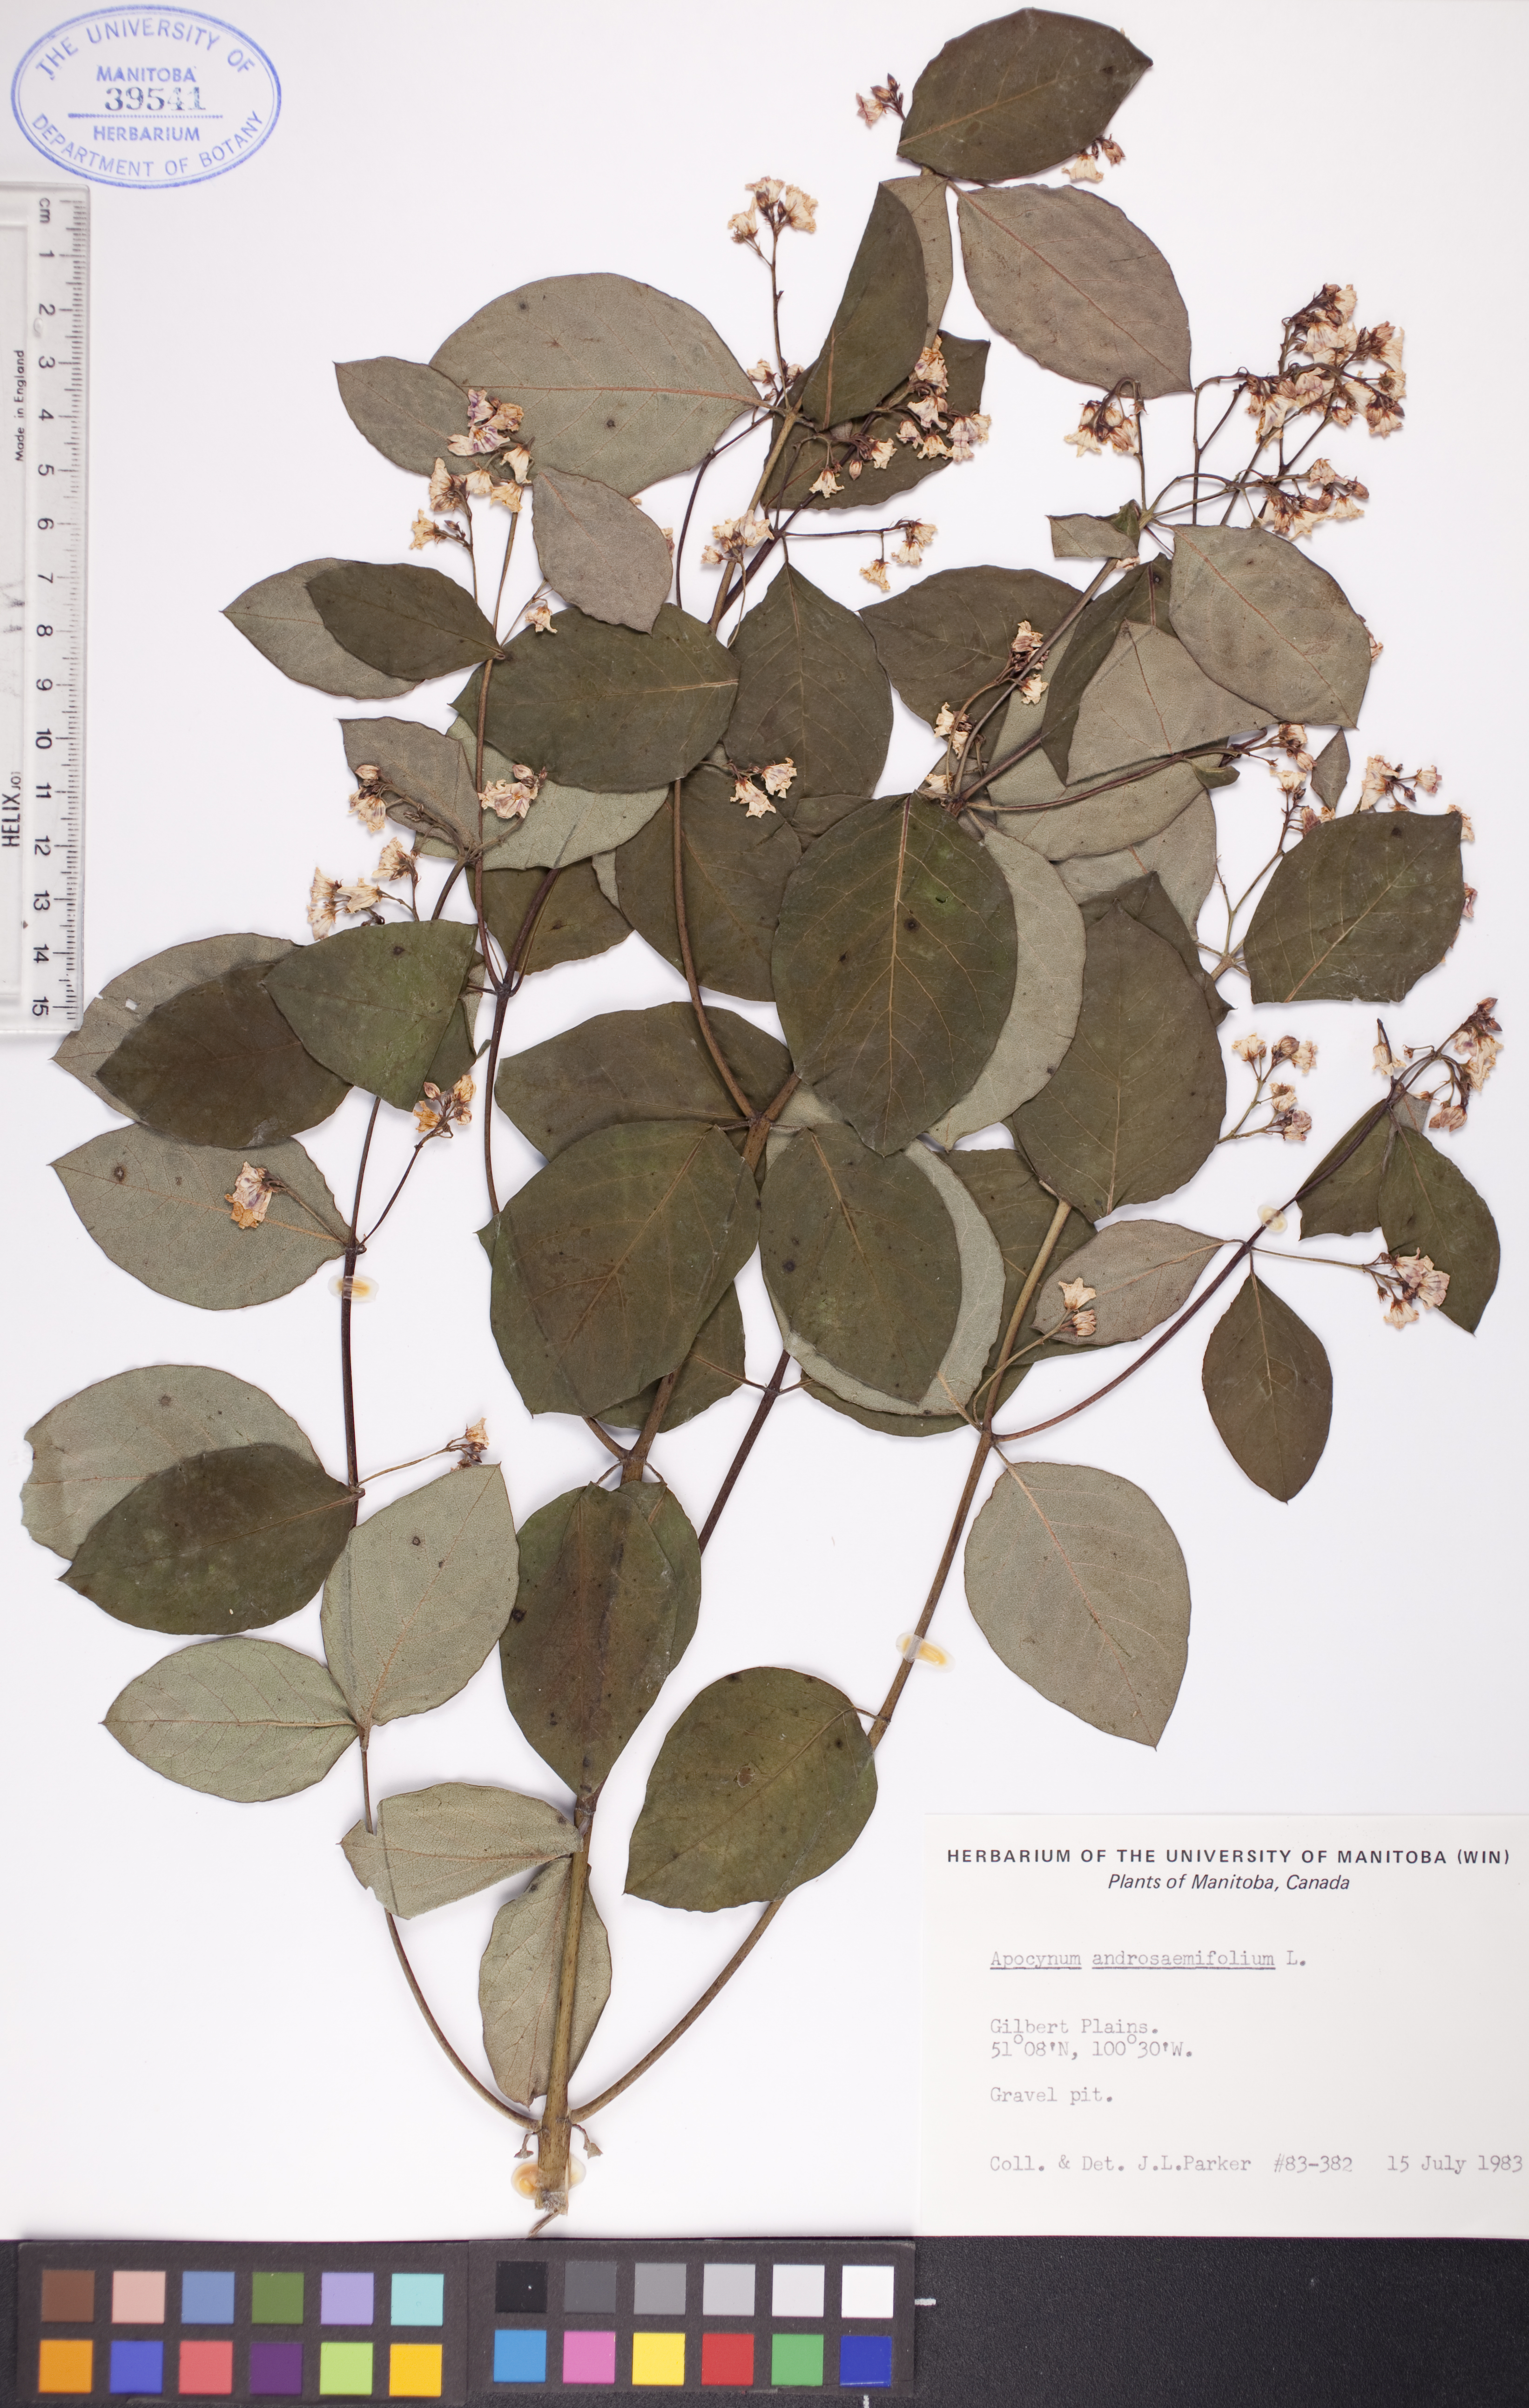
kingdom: Plantae
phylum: Tracheophyta
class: Magnoliopsida
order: Gentianales
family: Apocynaceae
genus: Apocynum
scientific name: Apocynum androsaemifolium
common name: Spreading dogbane
